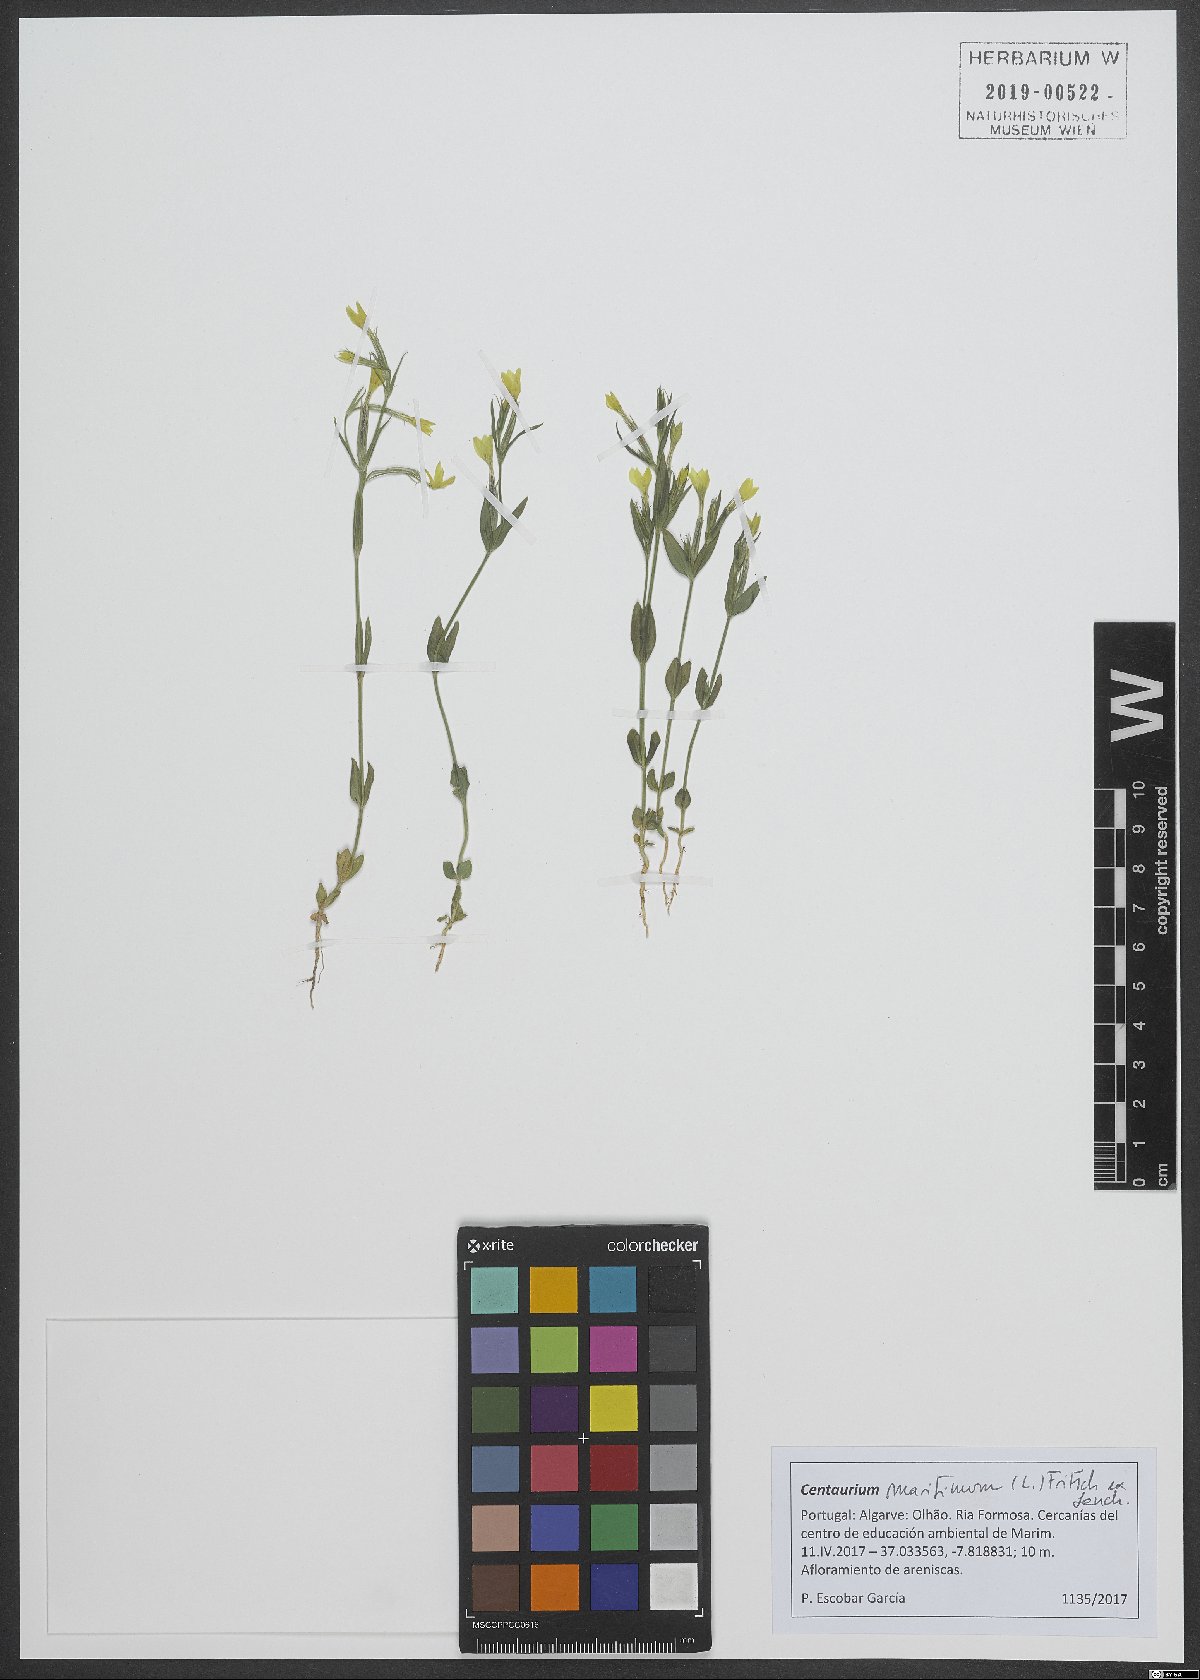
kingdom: Plantae
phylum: Tracheophyta
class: Magnoliopsida
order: Gentianales
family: Gentianaceae
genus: Centaurium
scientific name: Centaurium maritimum
